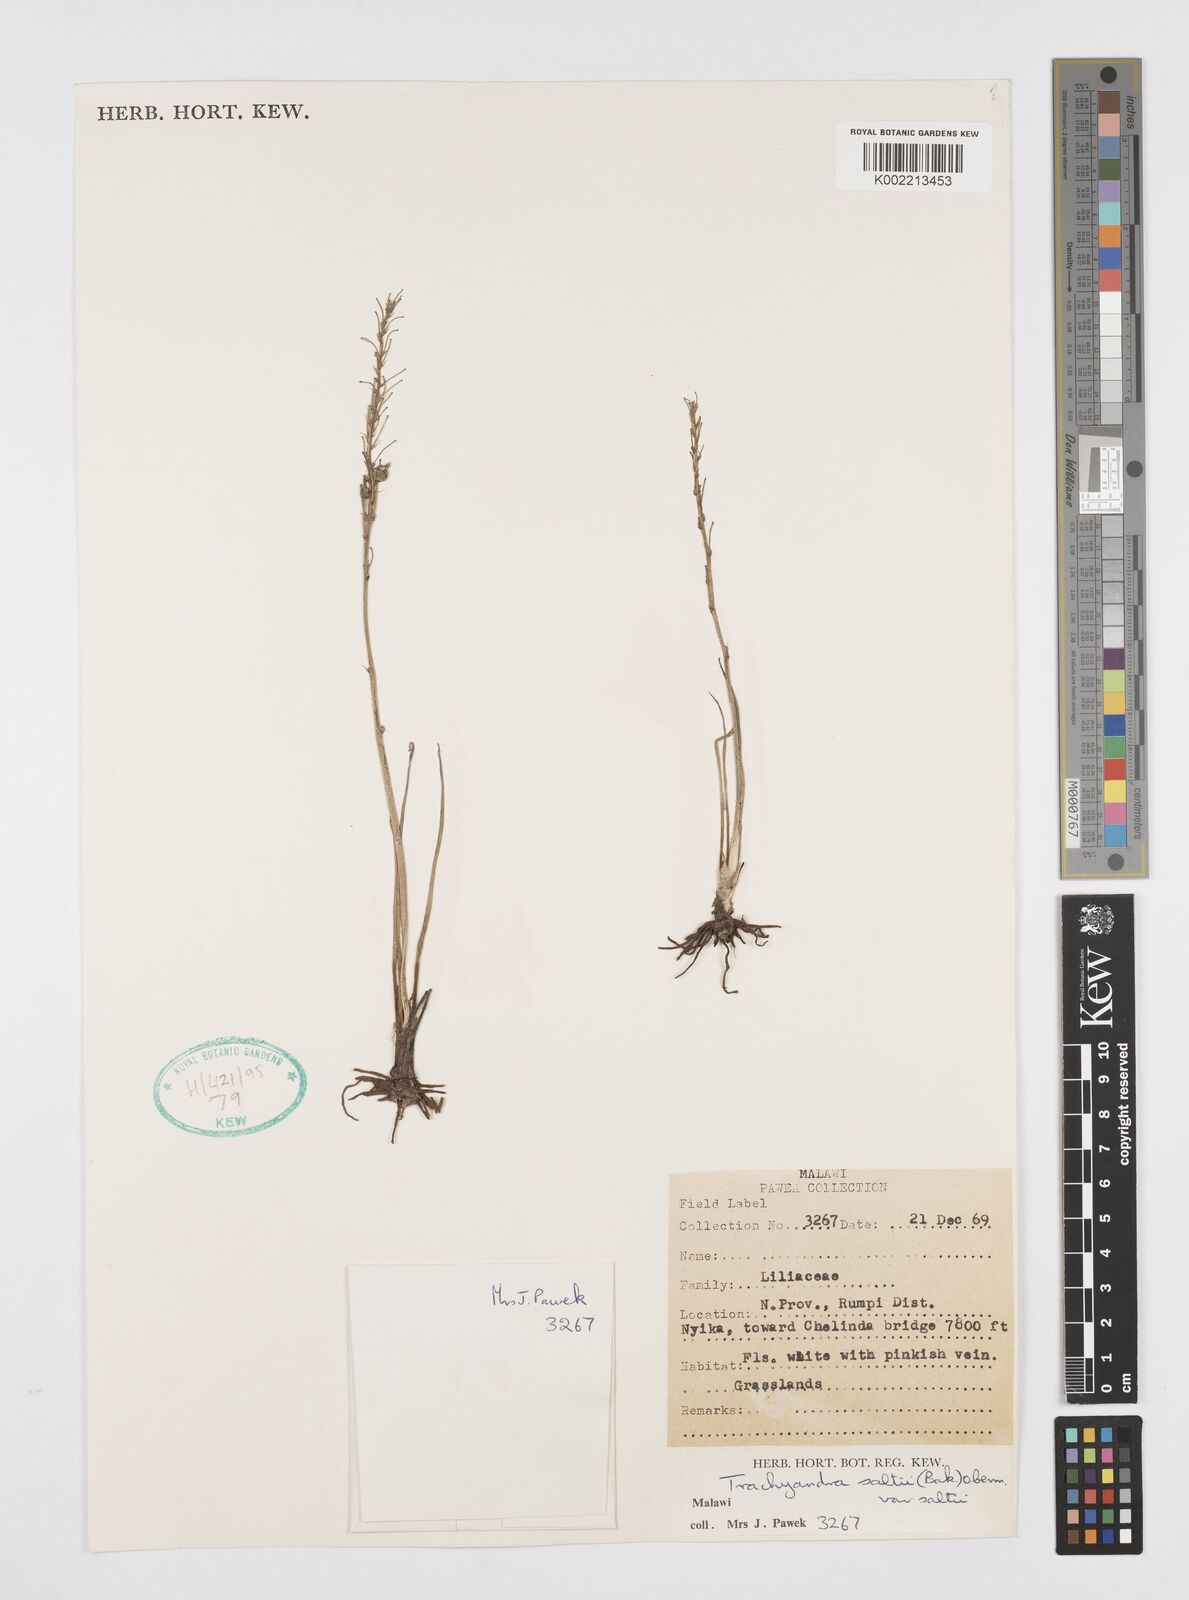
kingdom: Plantae
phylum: Tracheophyta
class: Liliopsida
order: Asparagales
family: Asphodelaceae
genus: Trachyandra
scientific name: Trachyandra saltii
